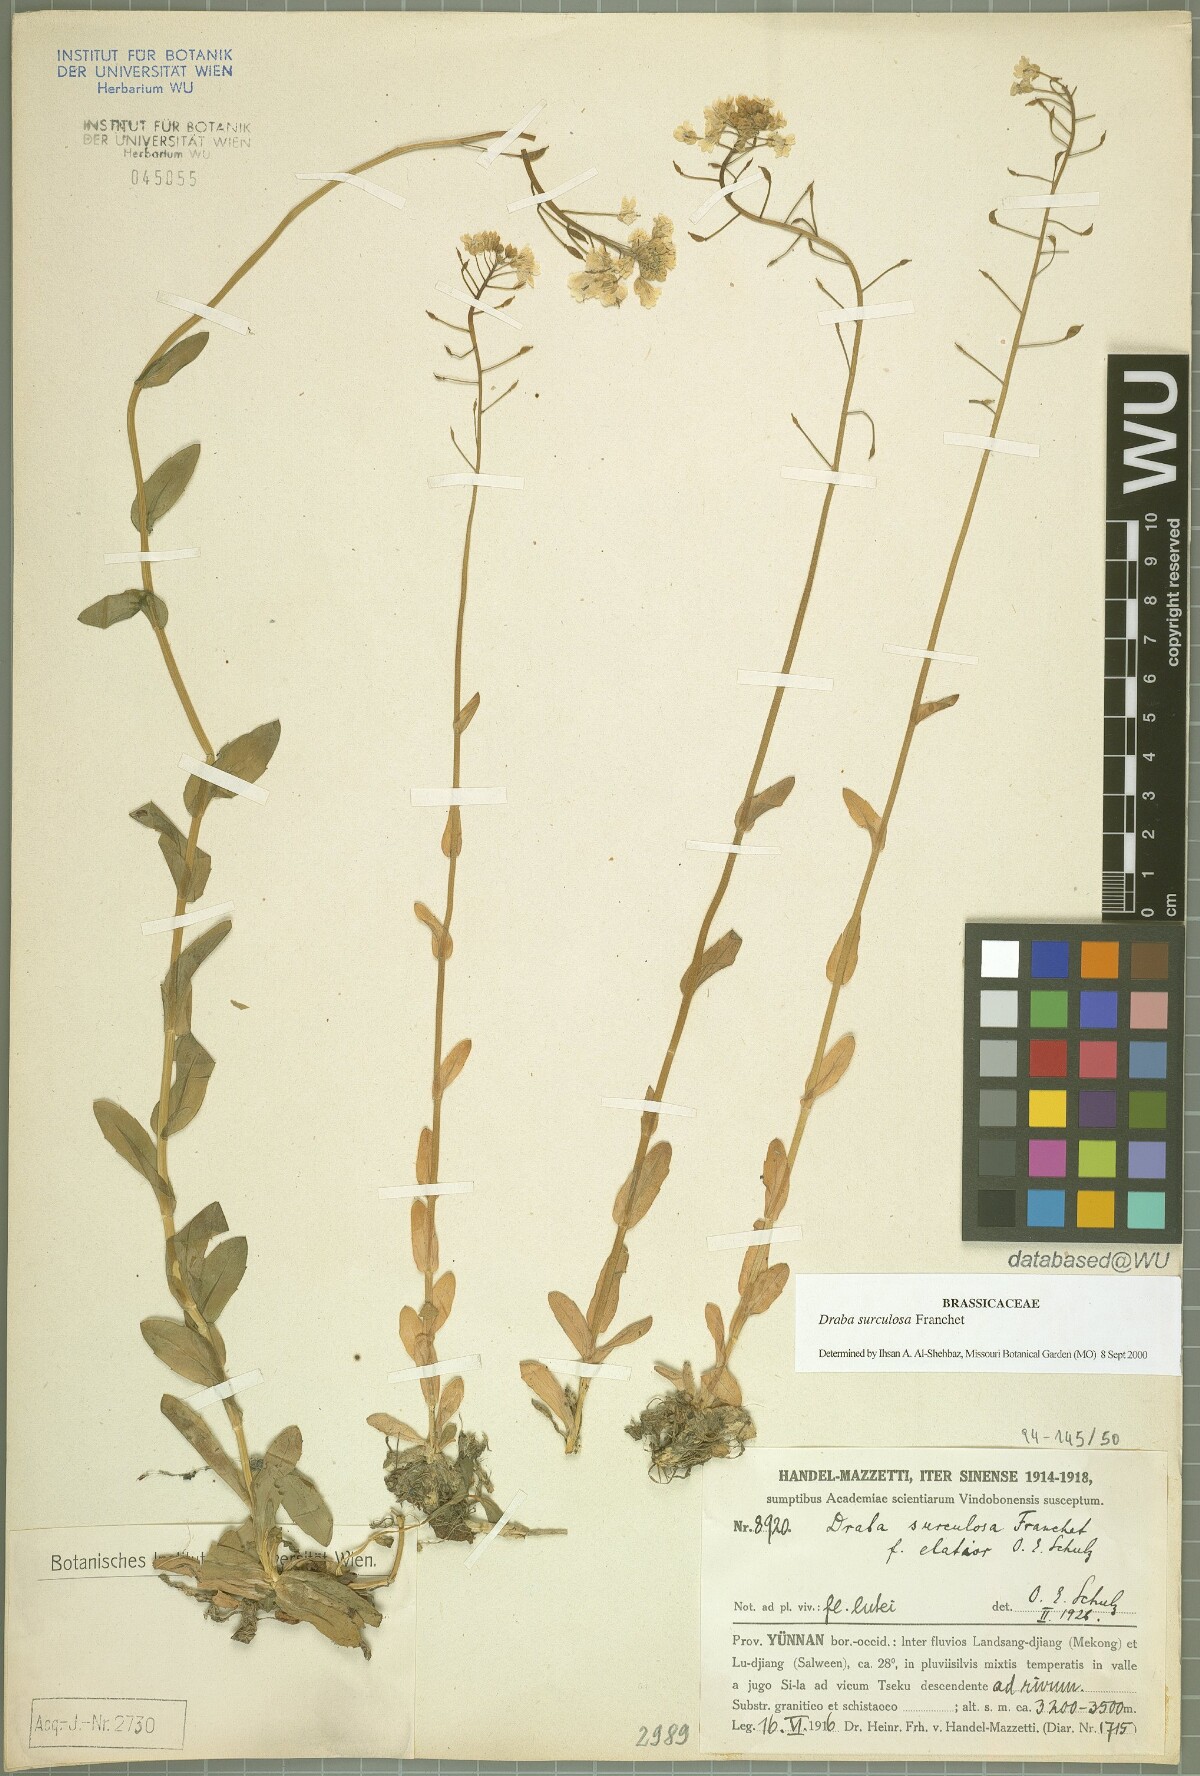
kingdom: Plantae
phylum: Tracheophyta
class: Magnoliopsida
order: Brassicales
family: Brassicaceae
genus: Draba
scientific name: Draba surculosa
